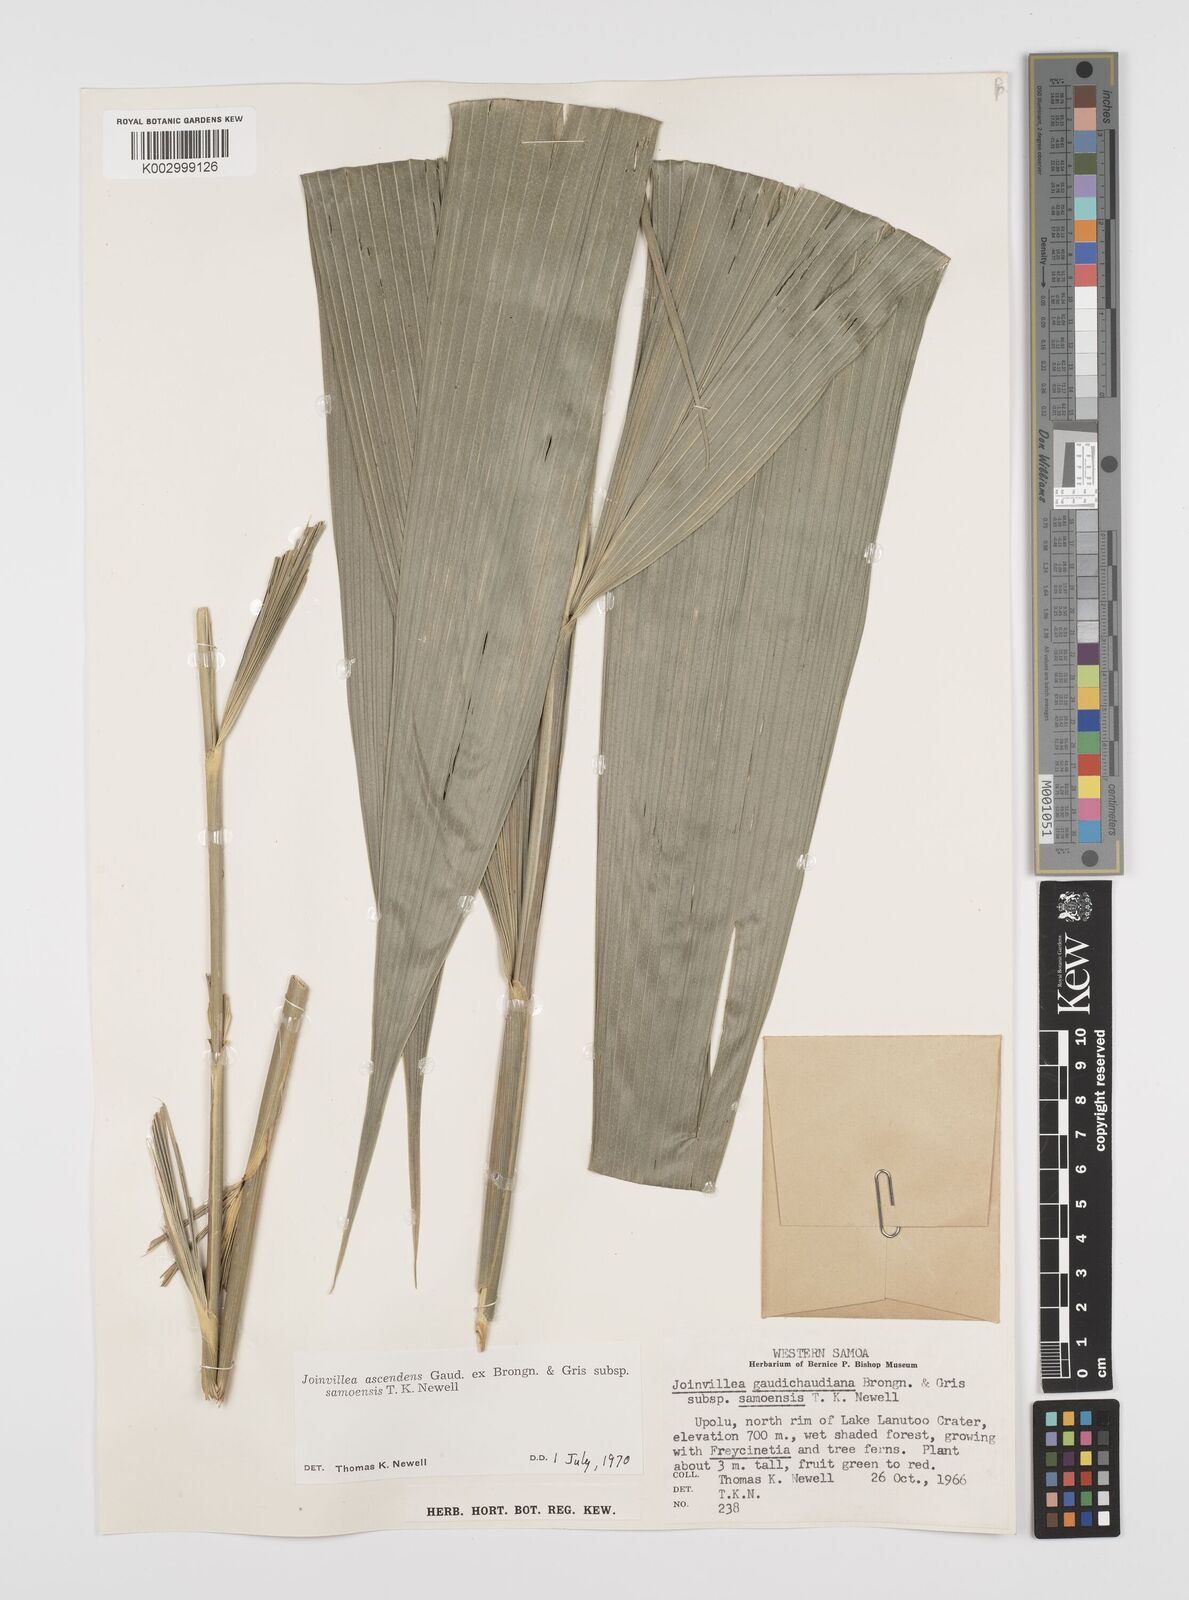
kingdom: Plantae
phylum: Tracheophyta
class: Liliopsida
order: Poales
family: Joinvilleaceae
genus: Joinvillea
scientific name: Joinvillea bryanii
